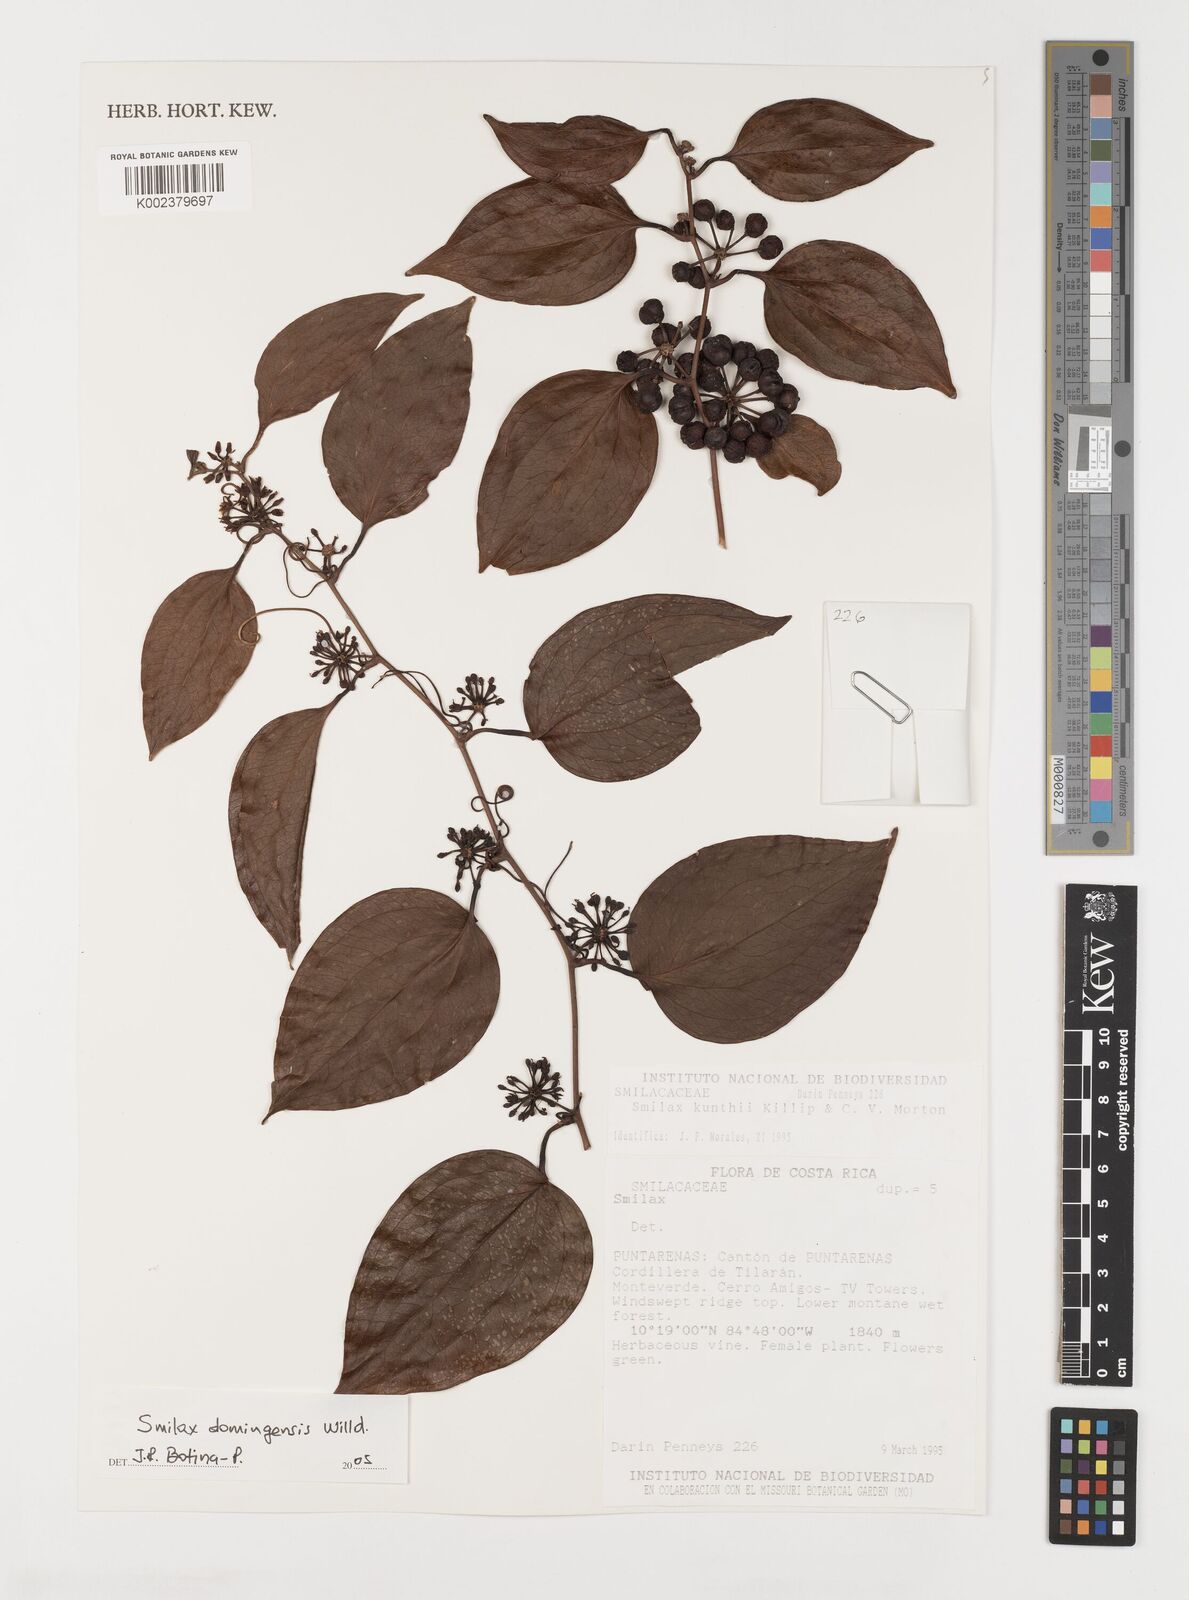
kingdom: Plantae
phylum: Tracheophyta
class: Liliopsida
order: Liliales
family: Smilacaceae
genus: Smilax
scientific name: Smilax domingensis
